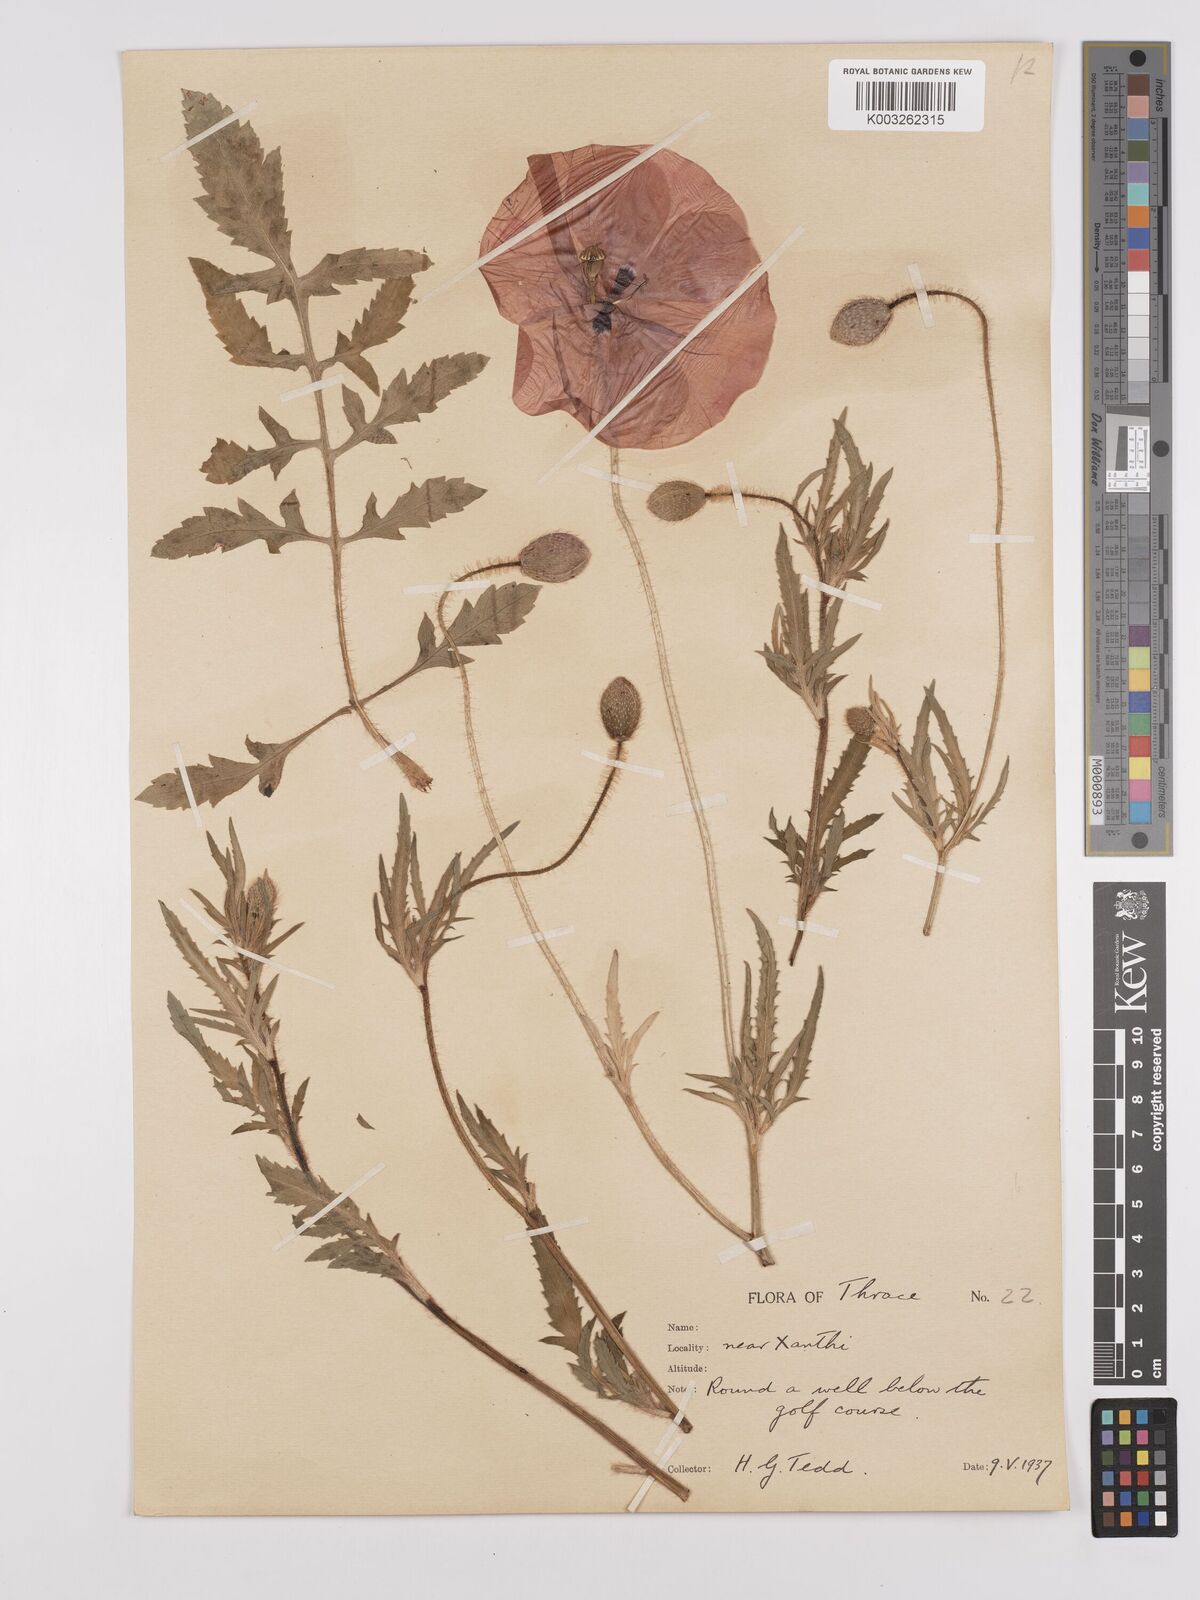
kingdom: Plantae
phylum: Tracheophyta
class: Magnoliopsida
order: Ranunculales
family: Papaveraceae
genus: Papaver
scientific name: Papaver rhoeas
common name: Corn poppy
